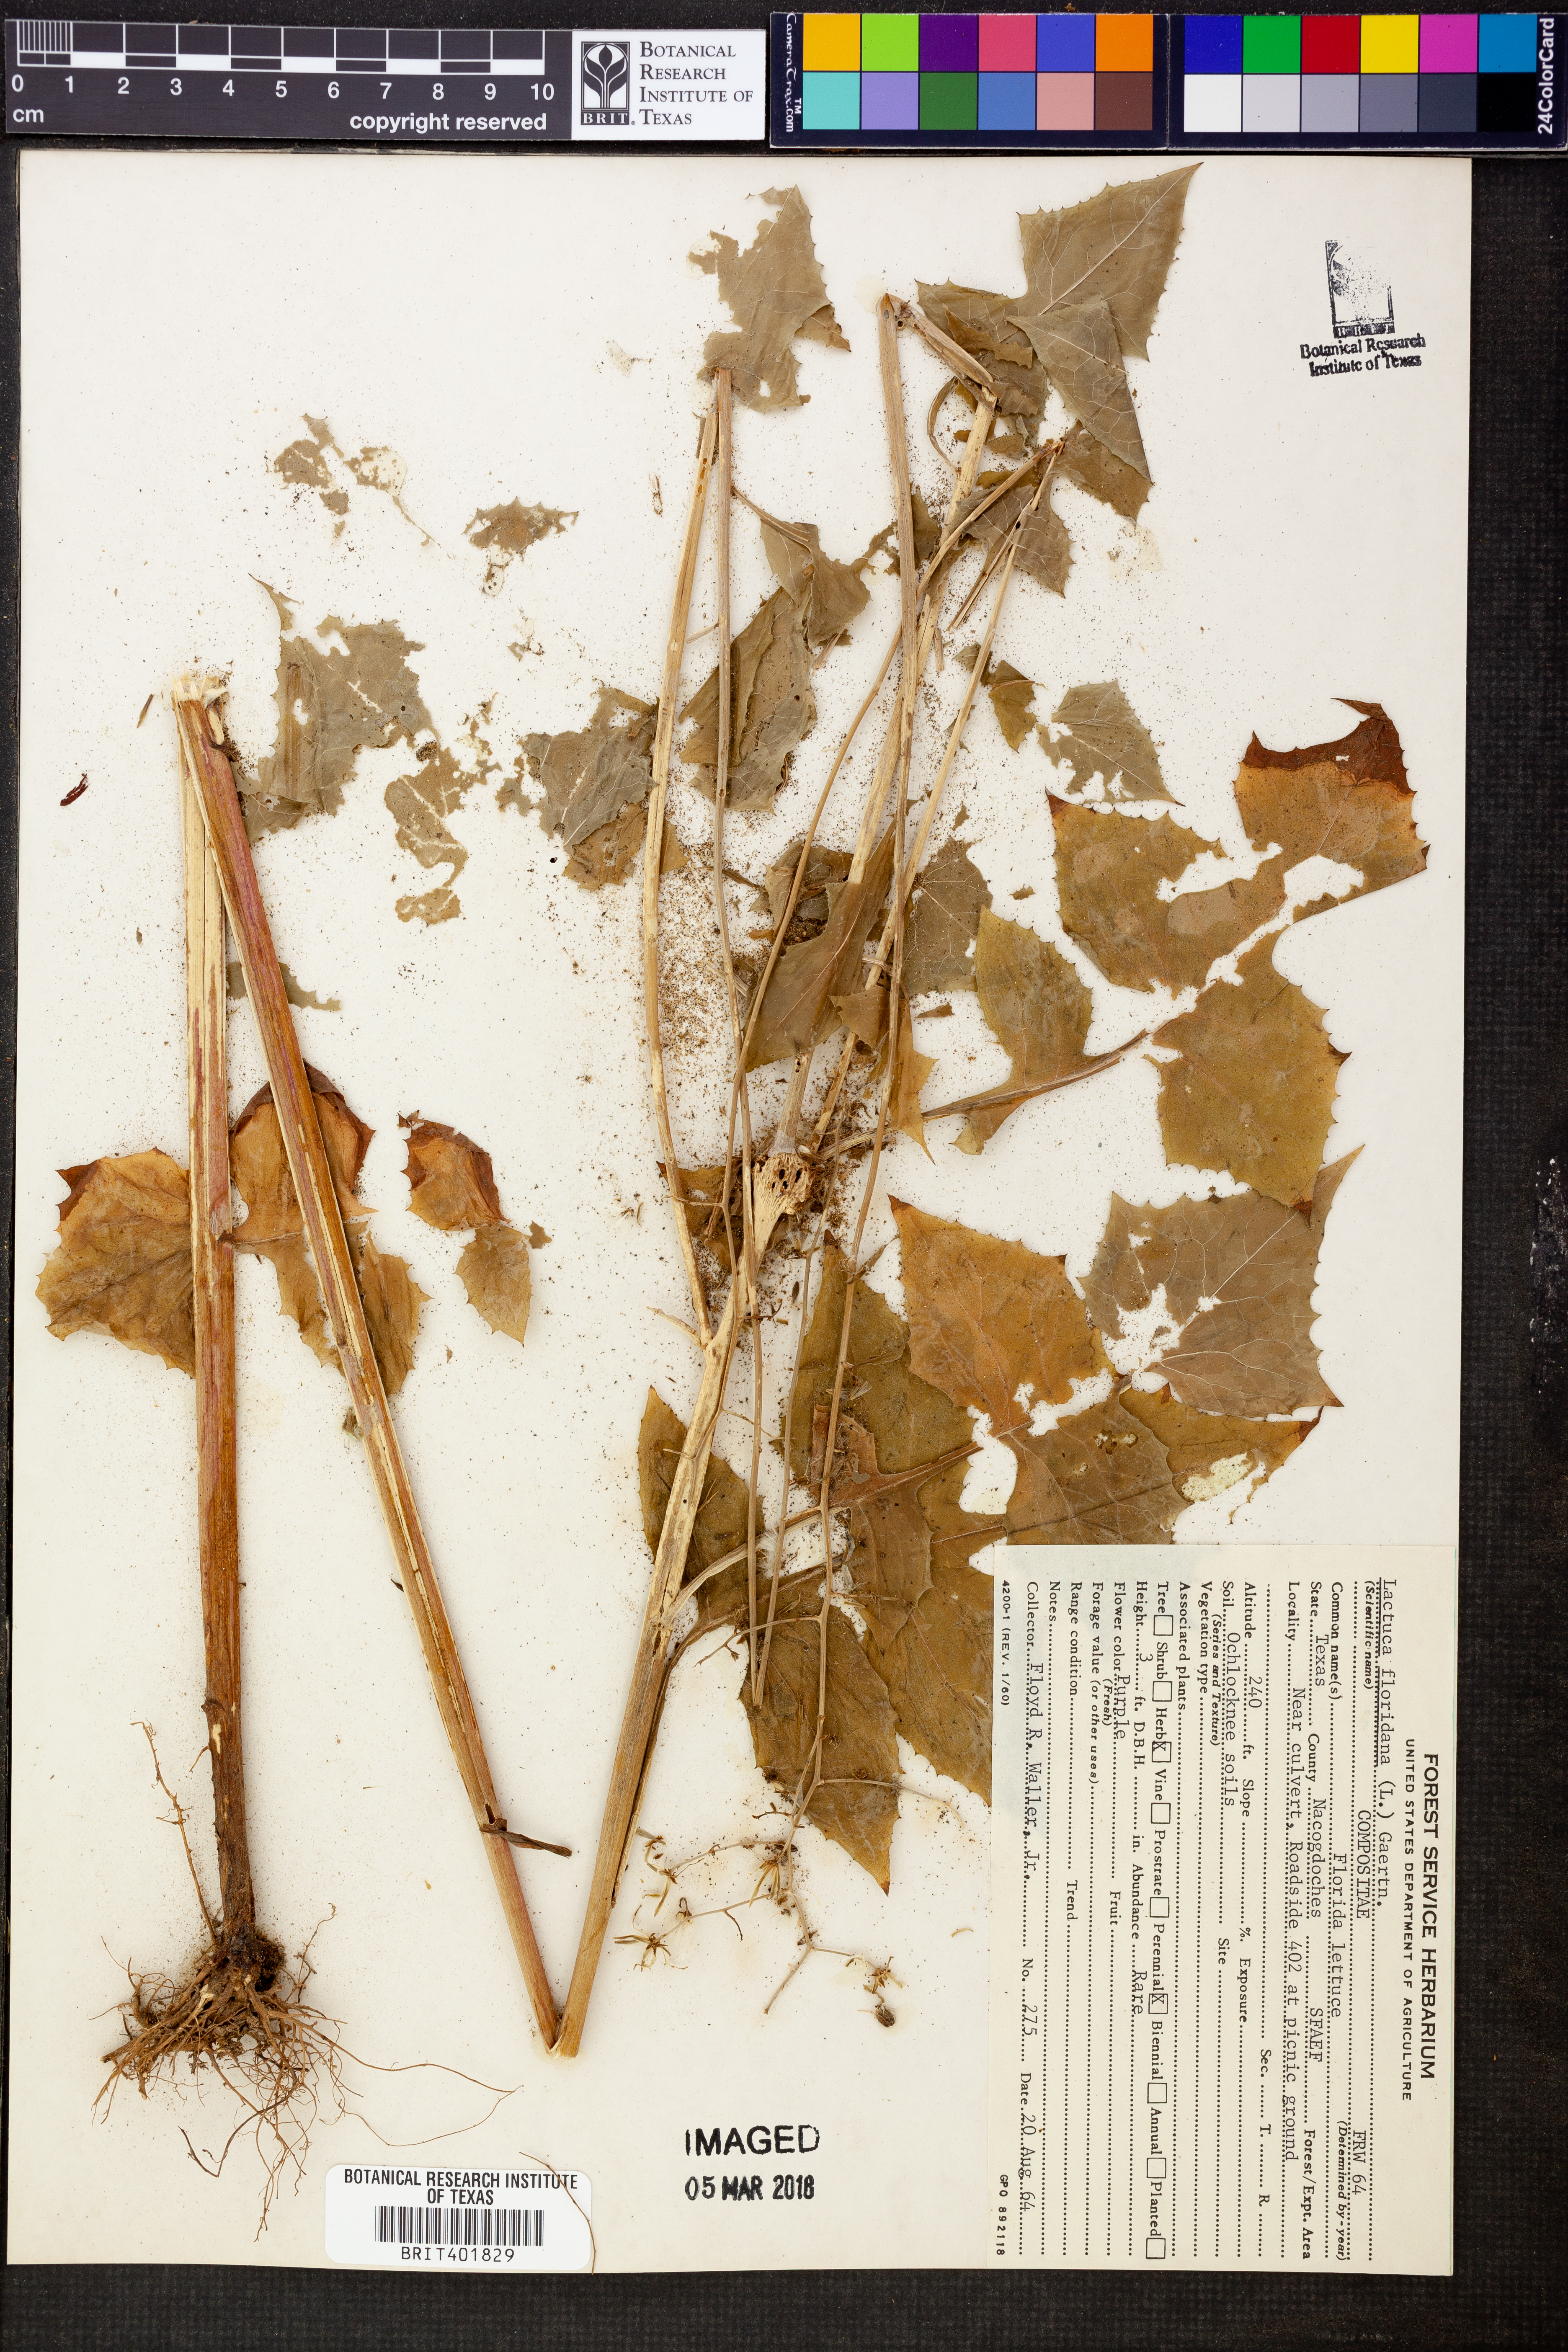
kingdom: Plantae
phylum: Tracheophyta
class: Magnoliopsida
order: Asterales
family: Asteraceae
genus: Lactuca
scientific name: Lactuca floridana
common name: Woodland lettuce
